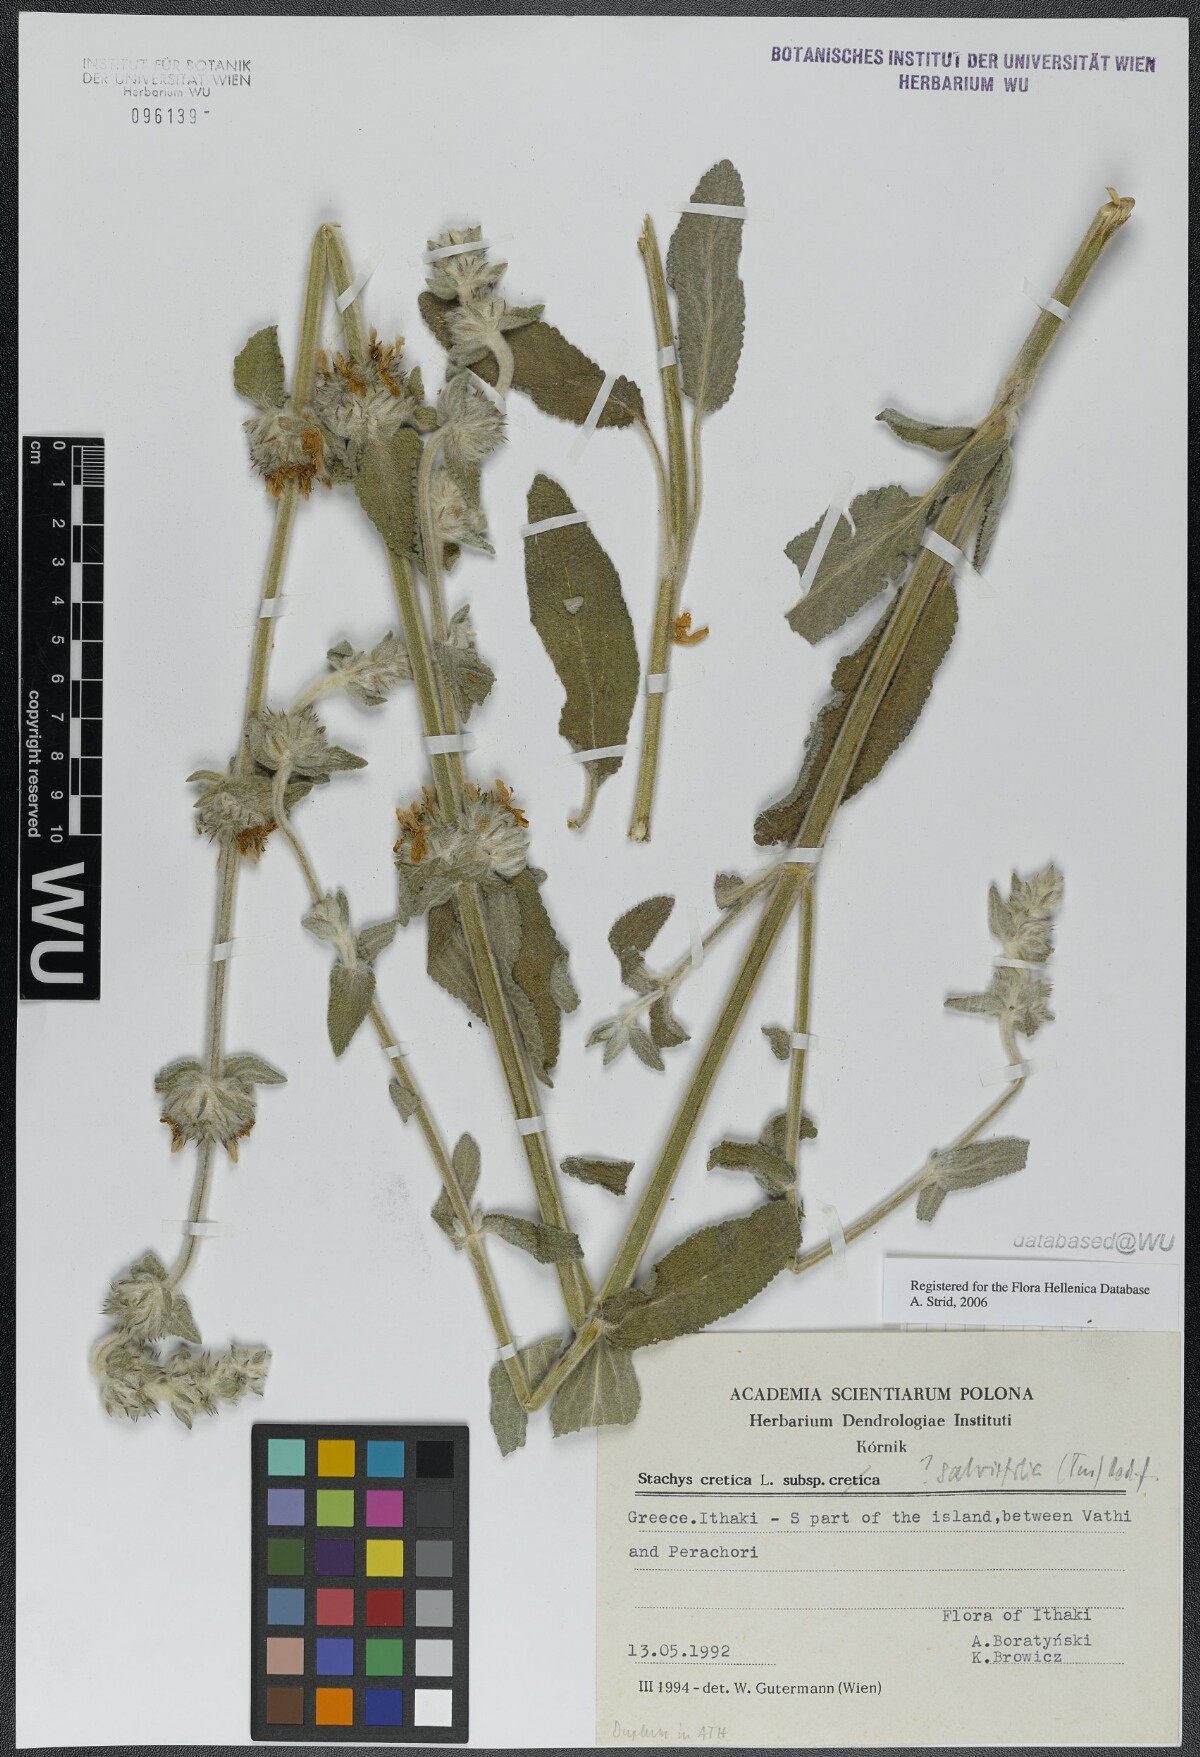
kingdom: Plantae
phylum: Tracheophyta
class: Magnoliopsida
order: Lamiales
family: Lamiaceae
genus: Stachys
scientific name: Stachys cretica
